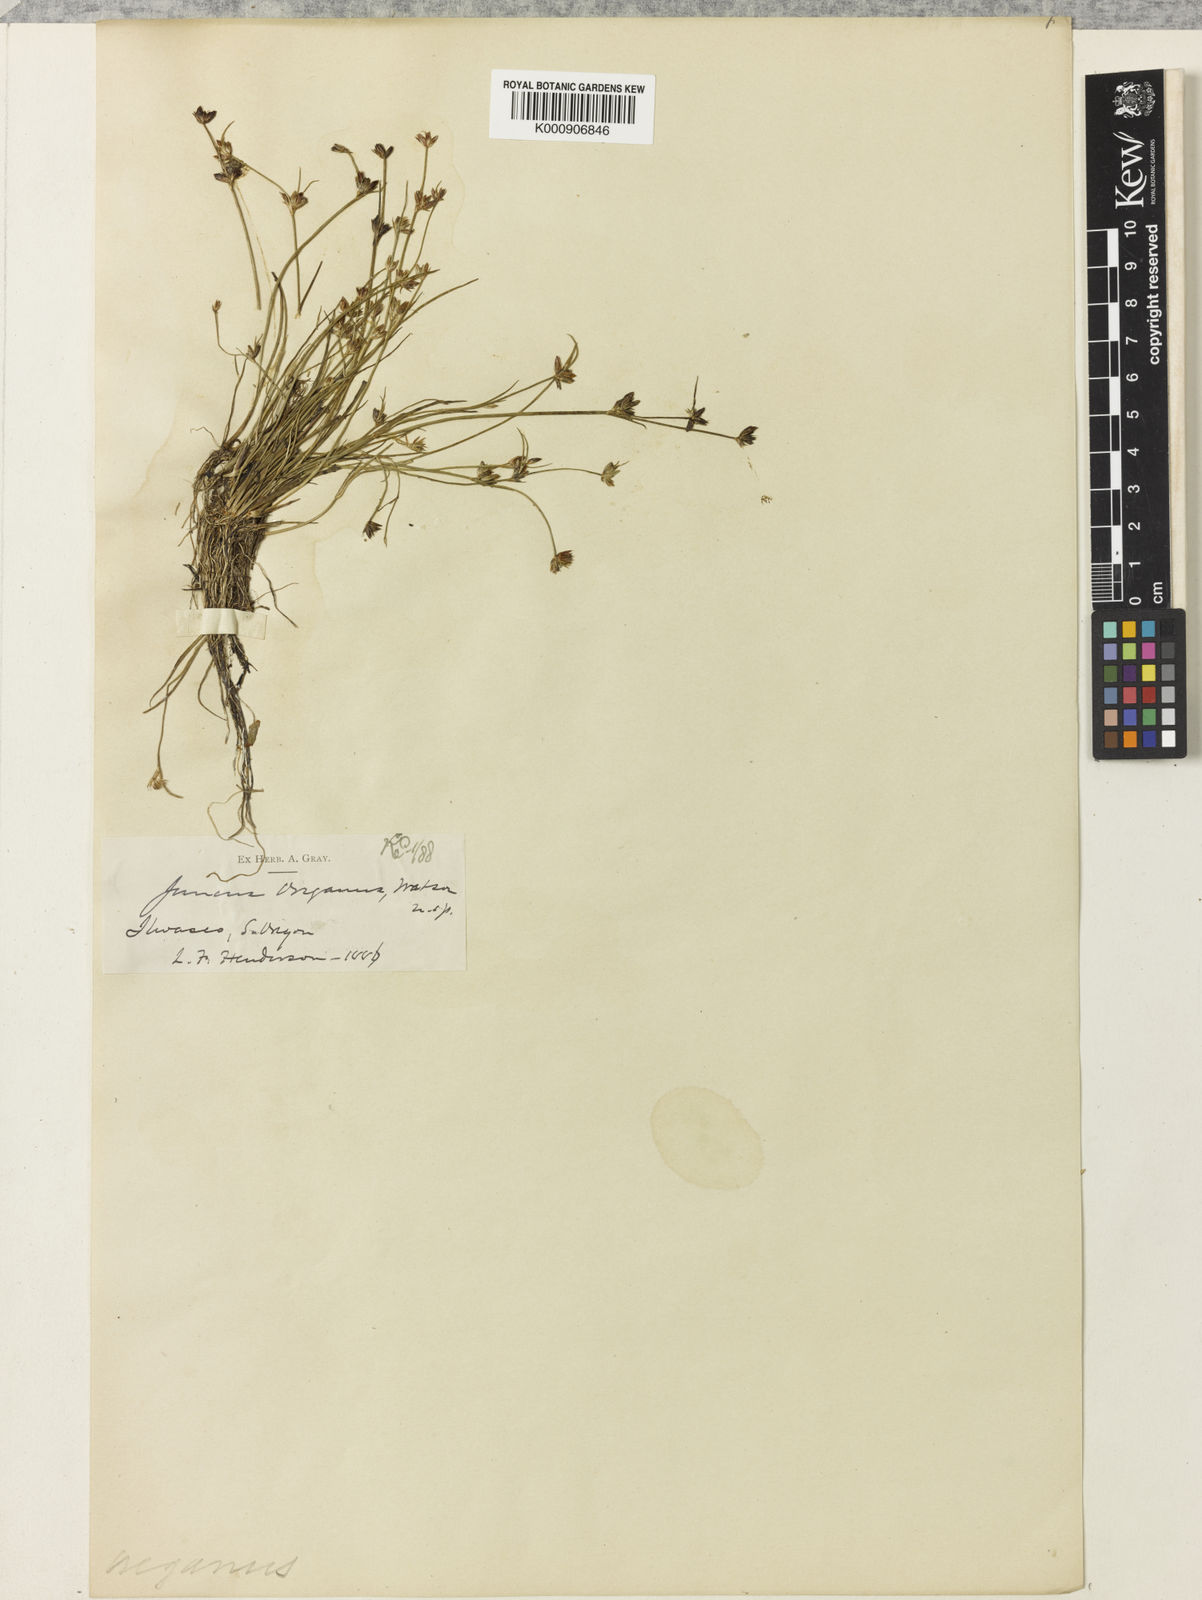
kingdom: Plantae
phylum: Tracheophyta
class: Liliopsida
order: Poales
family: Juncaceae
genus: Juncus
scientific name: Juncus supiniformis
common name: Hairy-leaved rush
